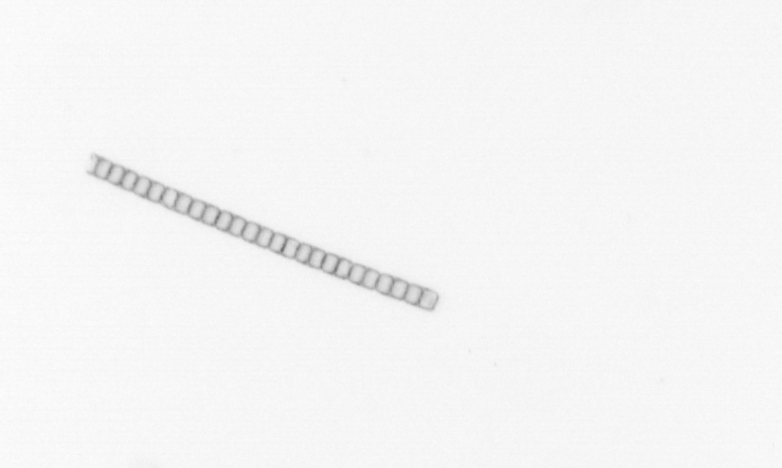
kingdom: Chromista
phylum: Ochrophyta
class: Bacillariophyceae
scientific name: Bacillariophyceae
